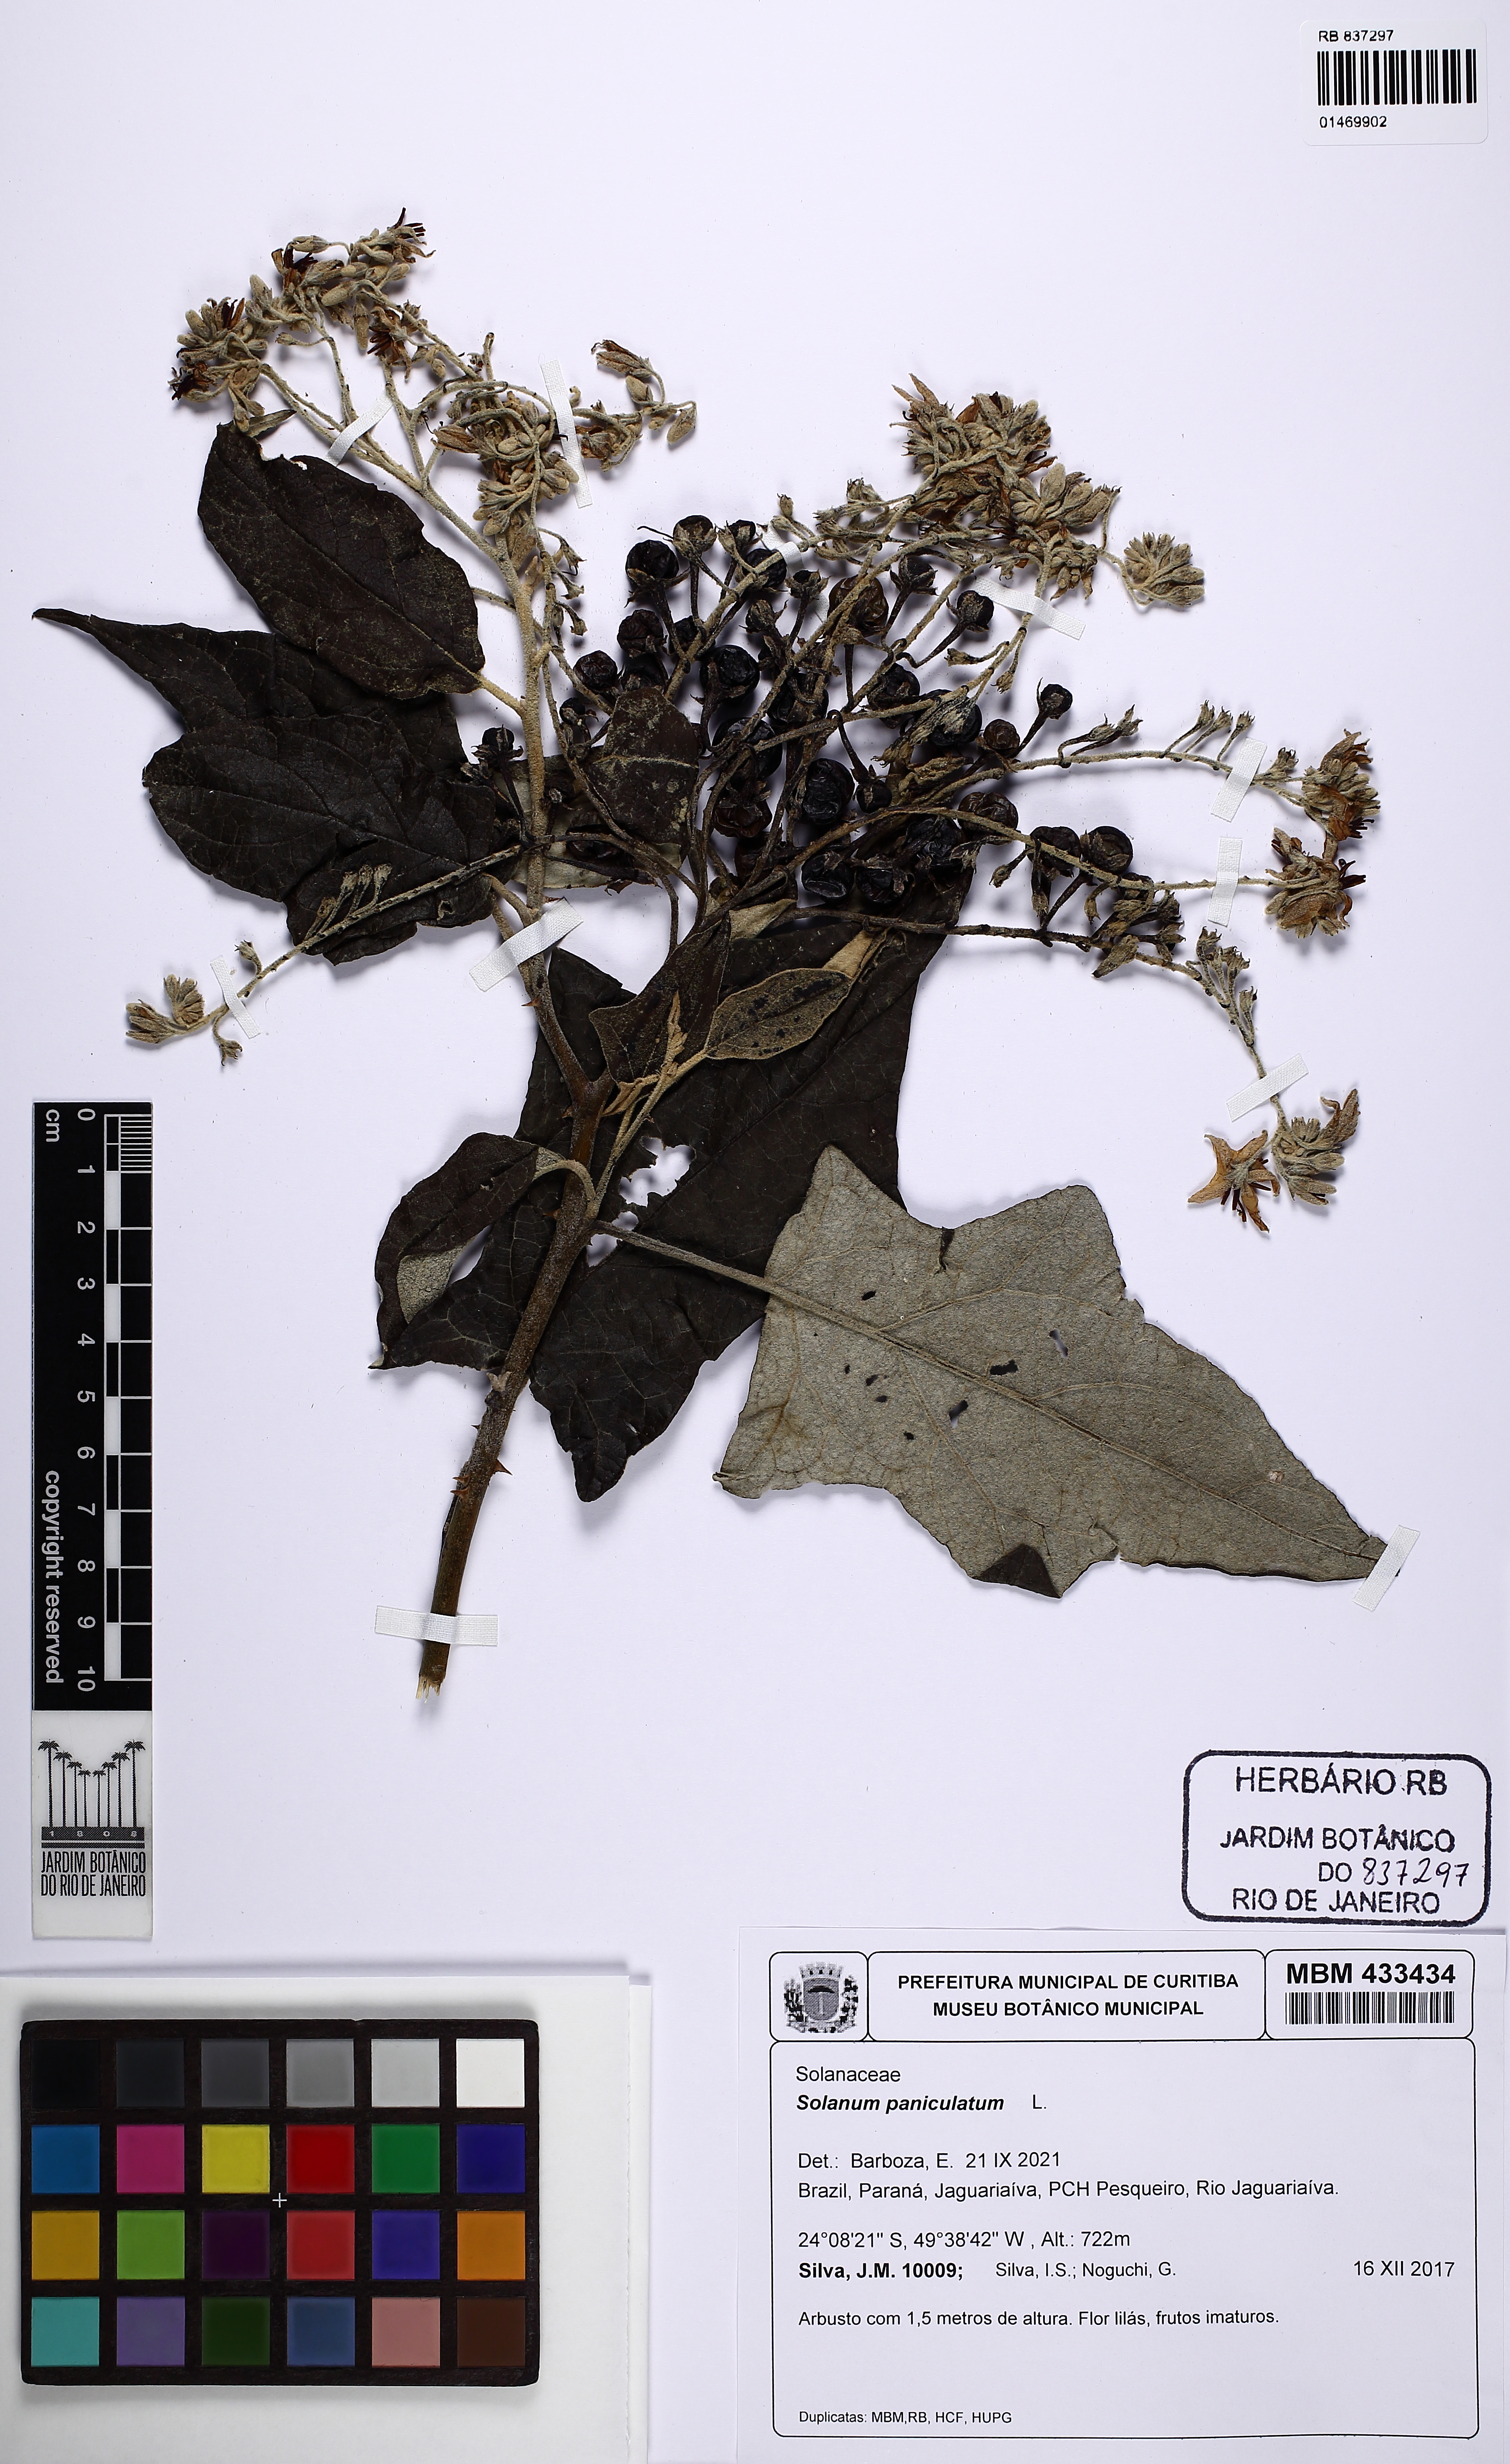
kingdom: Plantae
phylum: Tracheophyta
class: Magnoliopsida
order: Solanales
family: Solanaceae
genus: Solanum
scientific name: Solanum paniculatum
